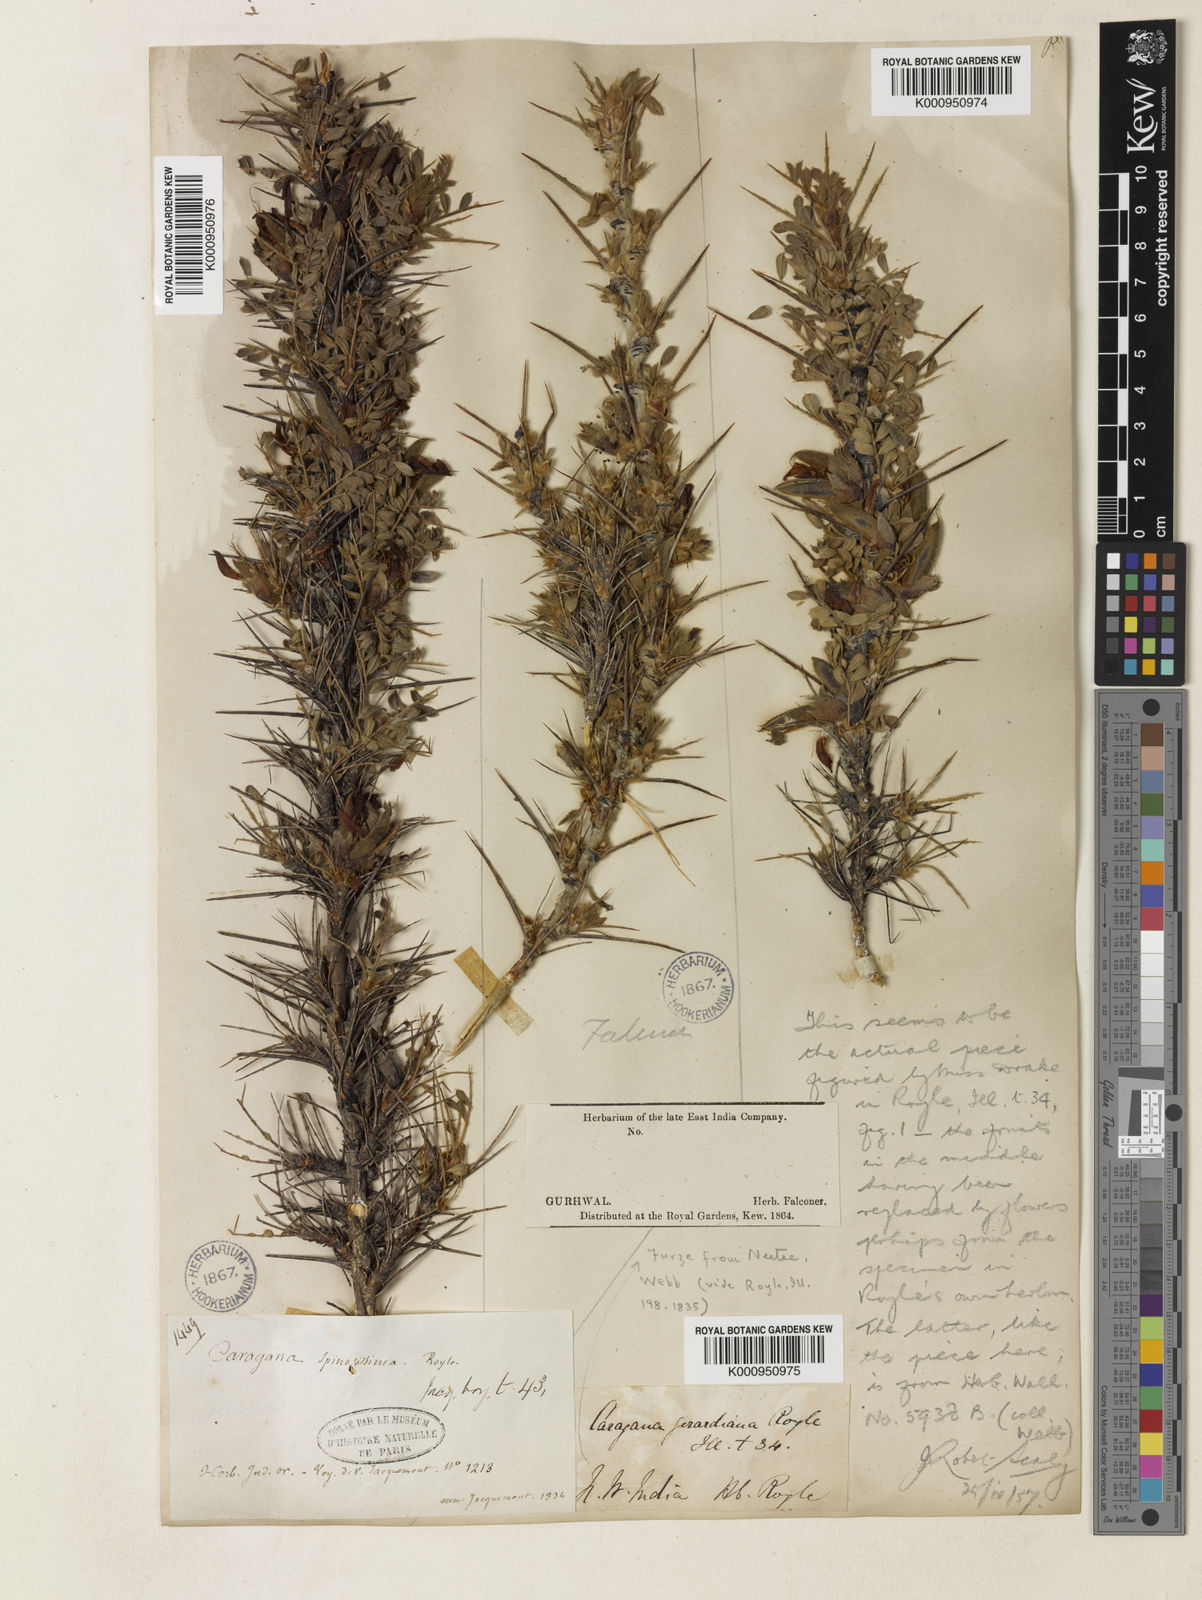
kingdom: Plantae
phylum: Tracheophyta
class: Magnoliopsida
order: Fabales
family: Fabaceae
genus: Caragana
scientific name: Caragana
